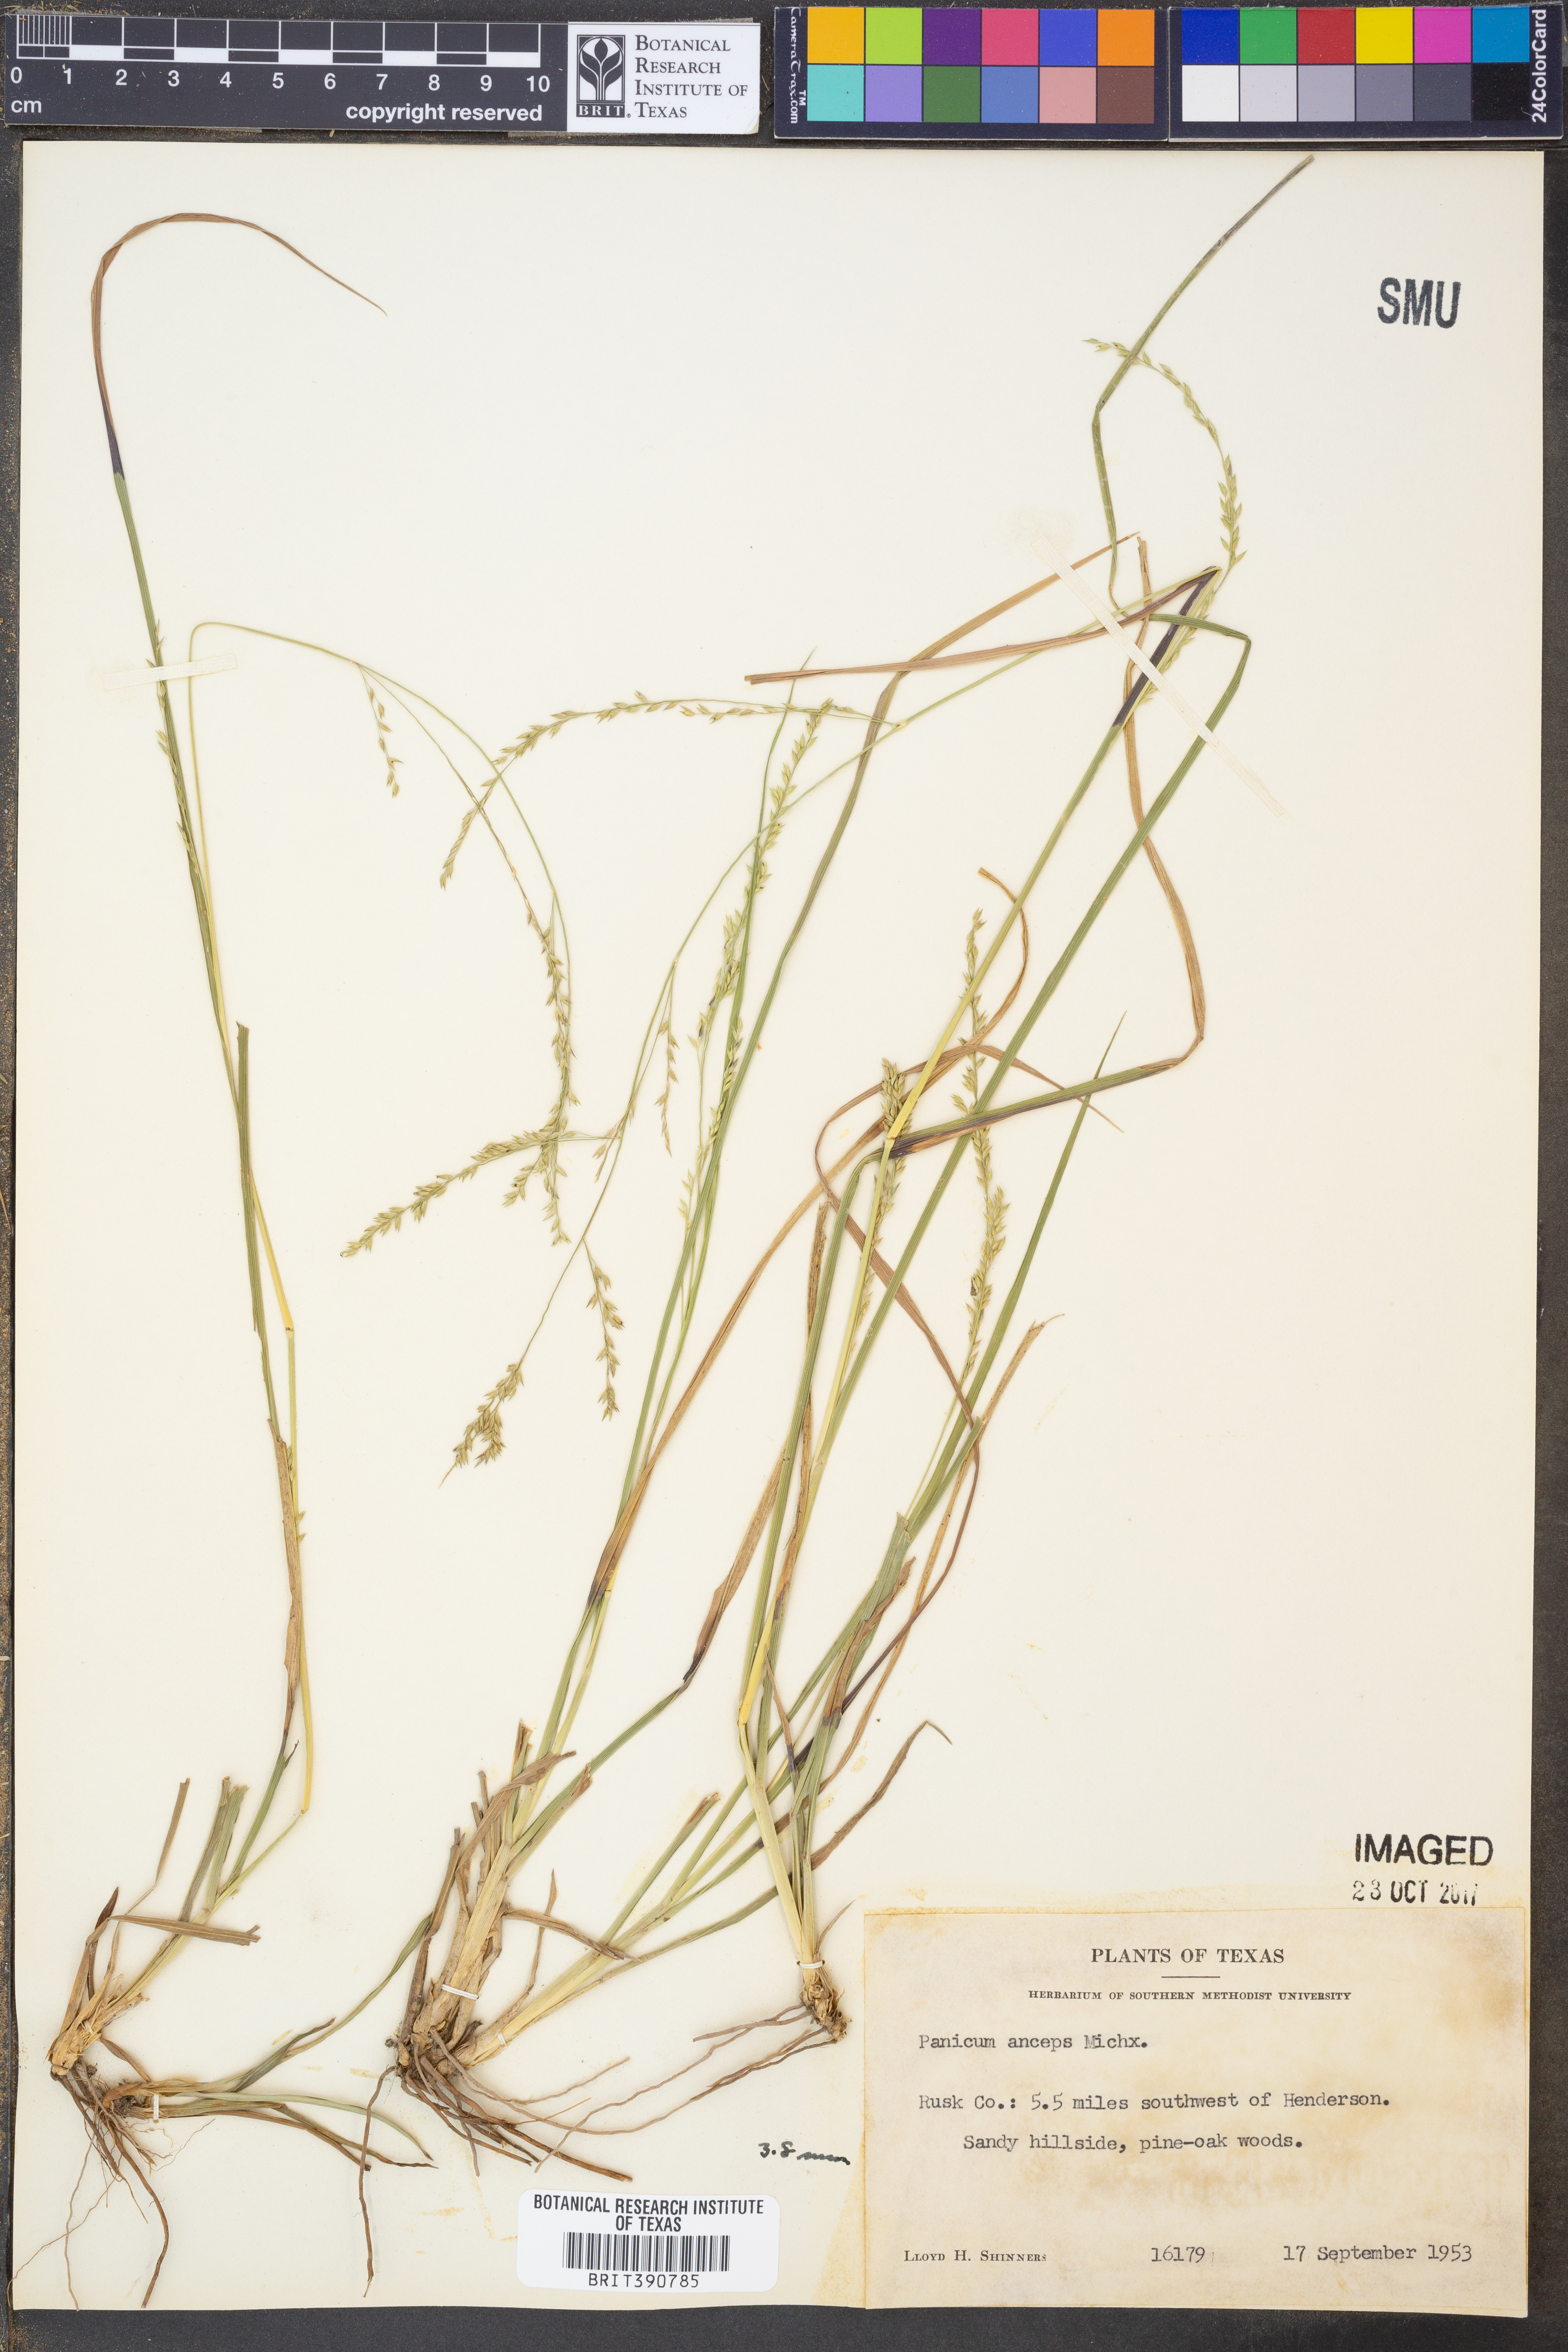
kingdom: Plantae
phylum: Tracheophyta
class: Liliopsida
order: Poales
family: Poaceae
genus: Coleataenia
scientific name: Coleataenia anceps
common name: Beaked panic grass
